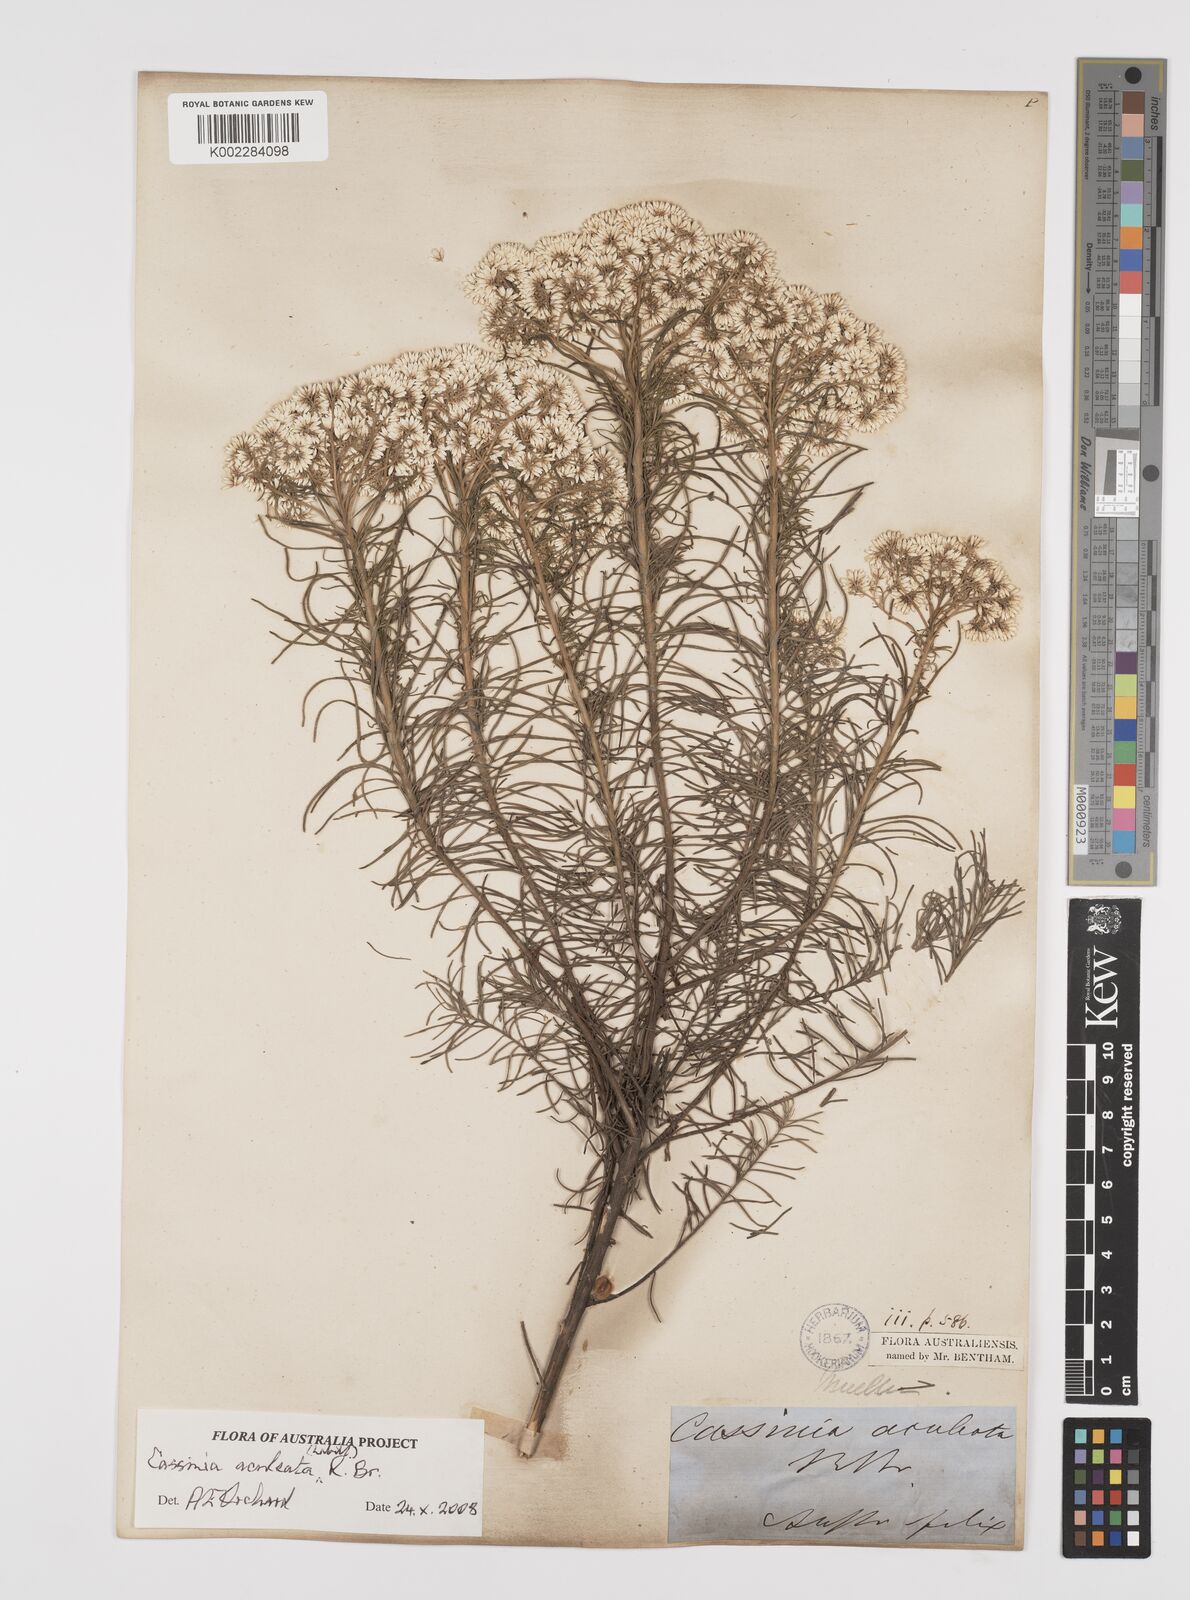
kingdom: Plantae
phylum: Tracheophyta
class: Magnoliopsida
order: Asterales
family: Asteraceae
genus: Cassinia
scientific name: Cassinia aculeata
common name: Australian tauhinu
